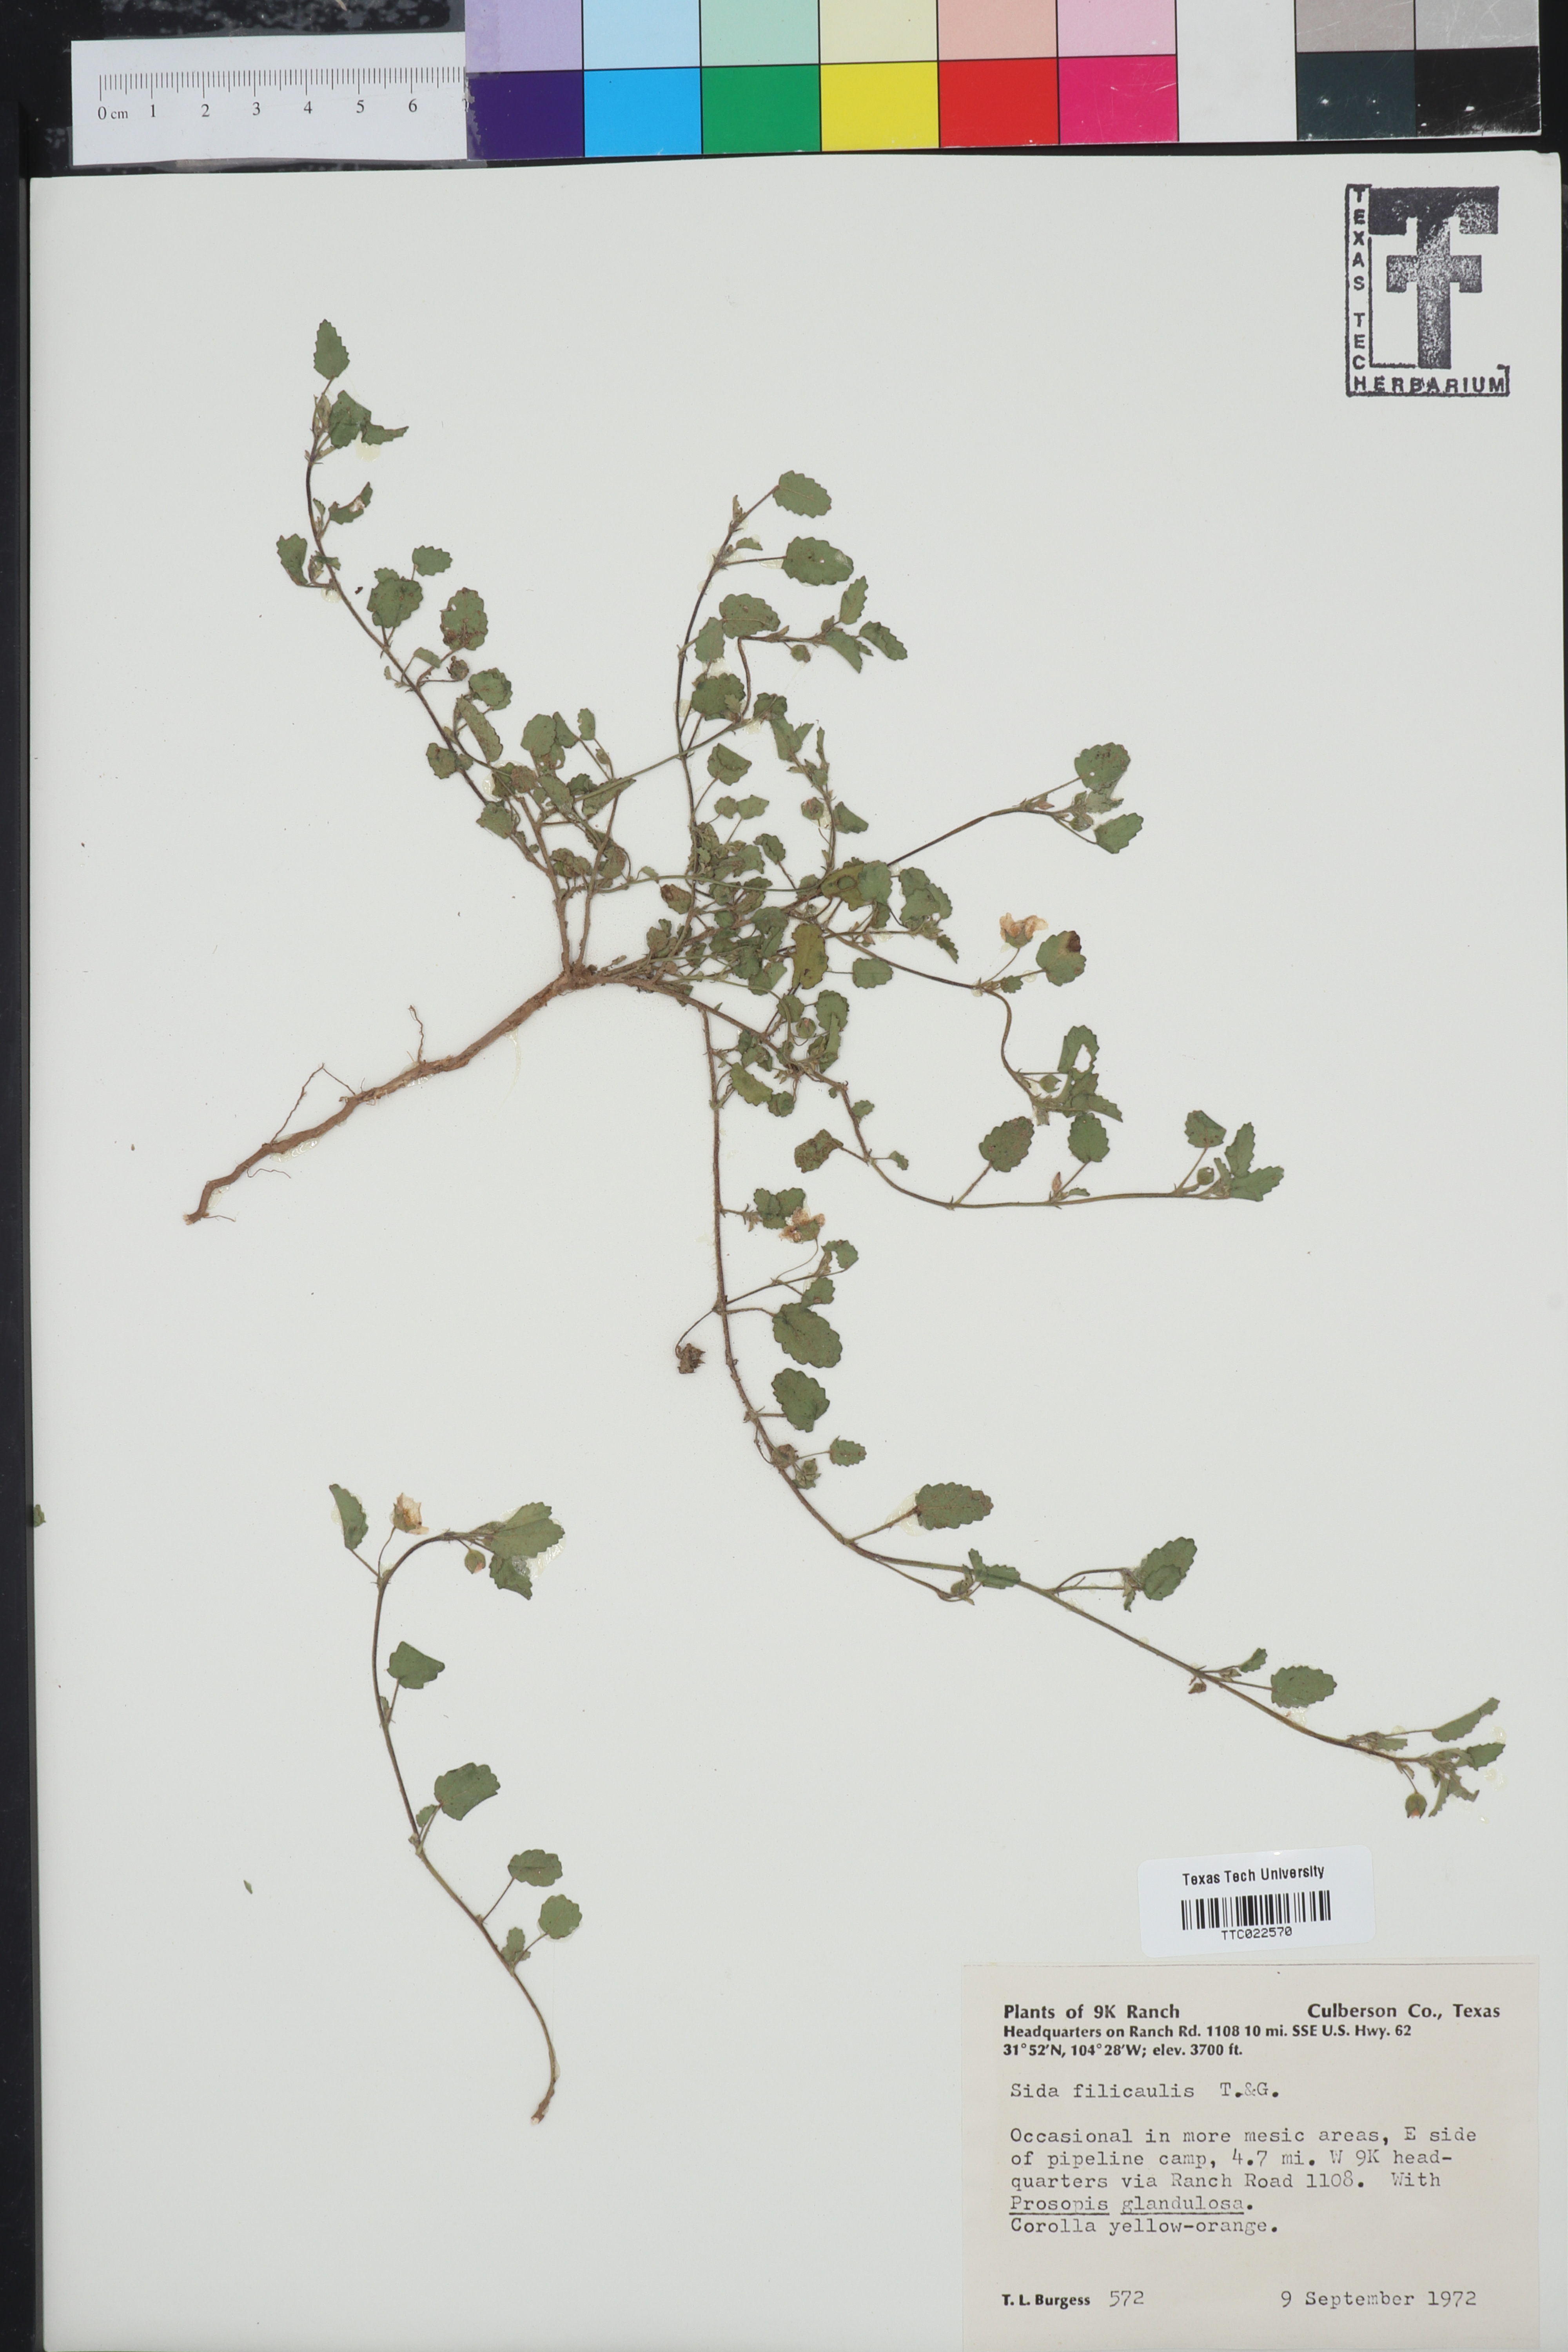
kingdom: Plantae
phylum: Tracheophyta
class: Magnoliopsida
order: Malvales
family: Malvaceae
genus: Sida
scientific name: Sida abutilifolia
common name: Spreading fanpetals
